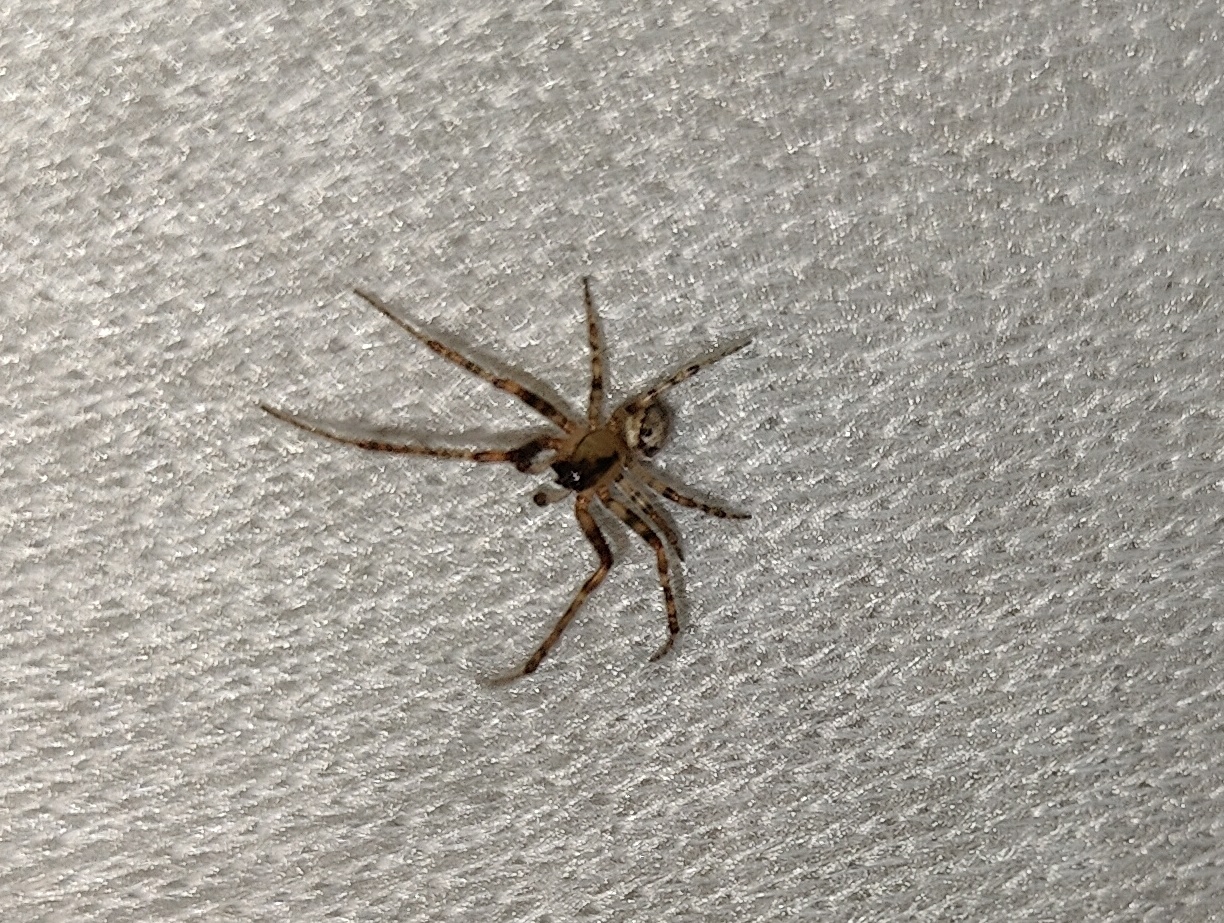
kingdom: Animalia
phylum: Arthropoda
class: Arachnida
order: Araneae
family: Araneidae
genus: Zygiella
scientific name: Zygiella x-notata
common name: Grå sektoredderkop
